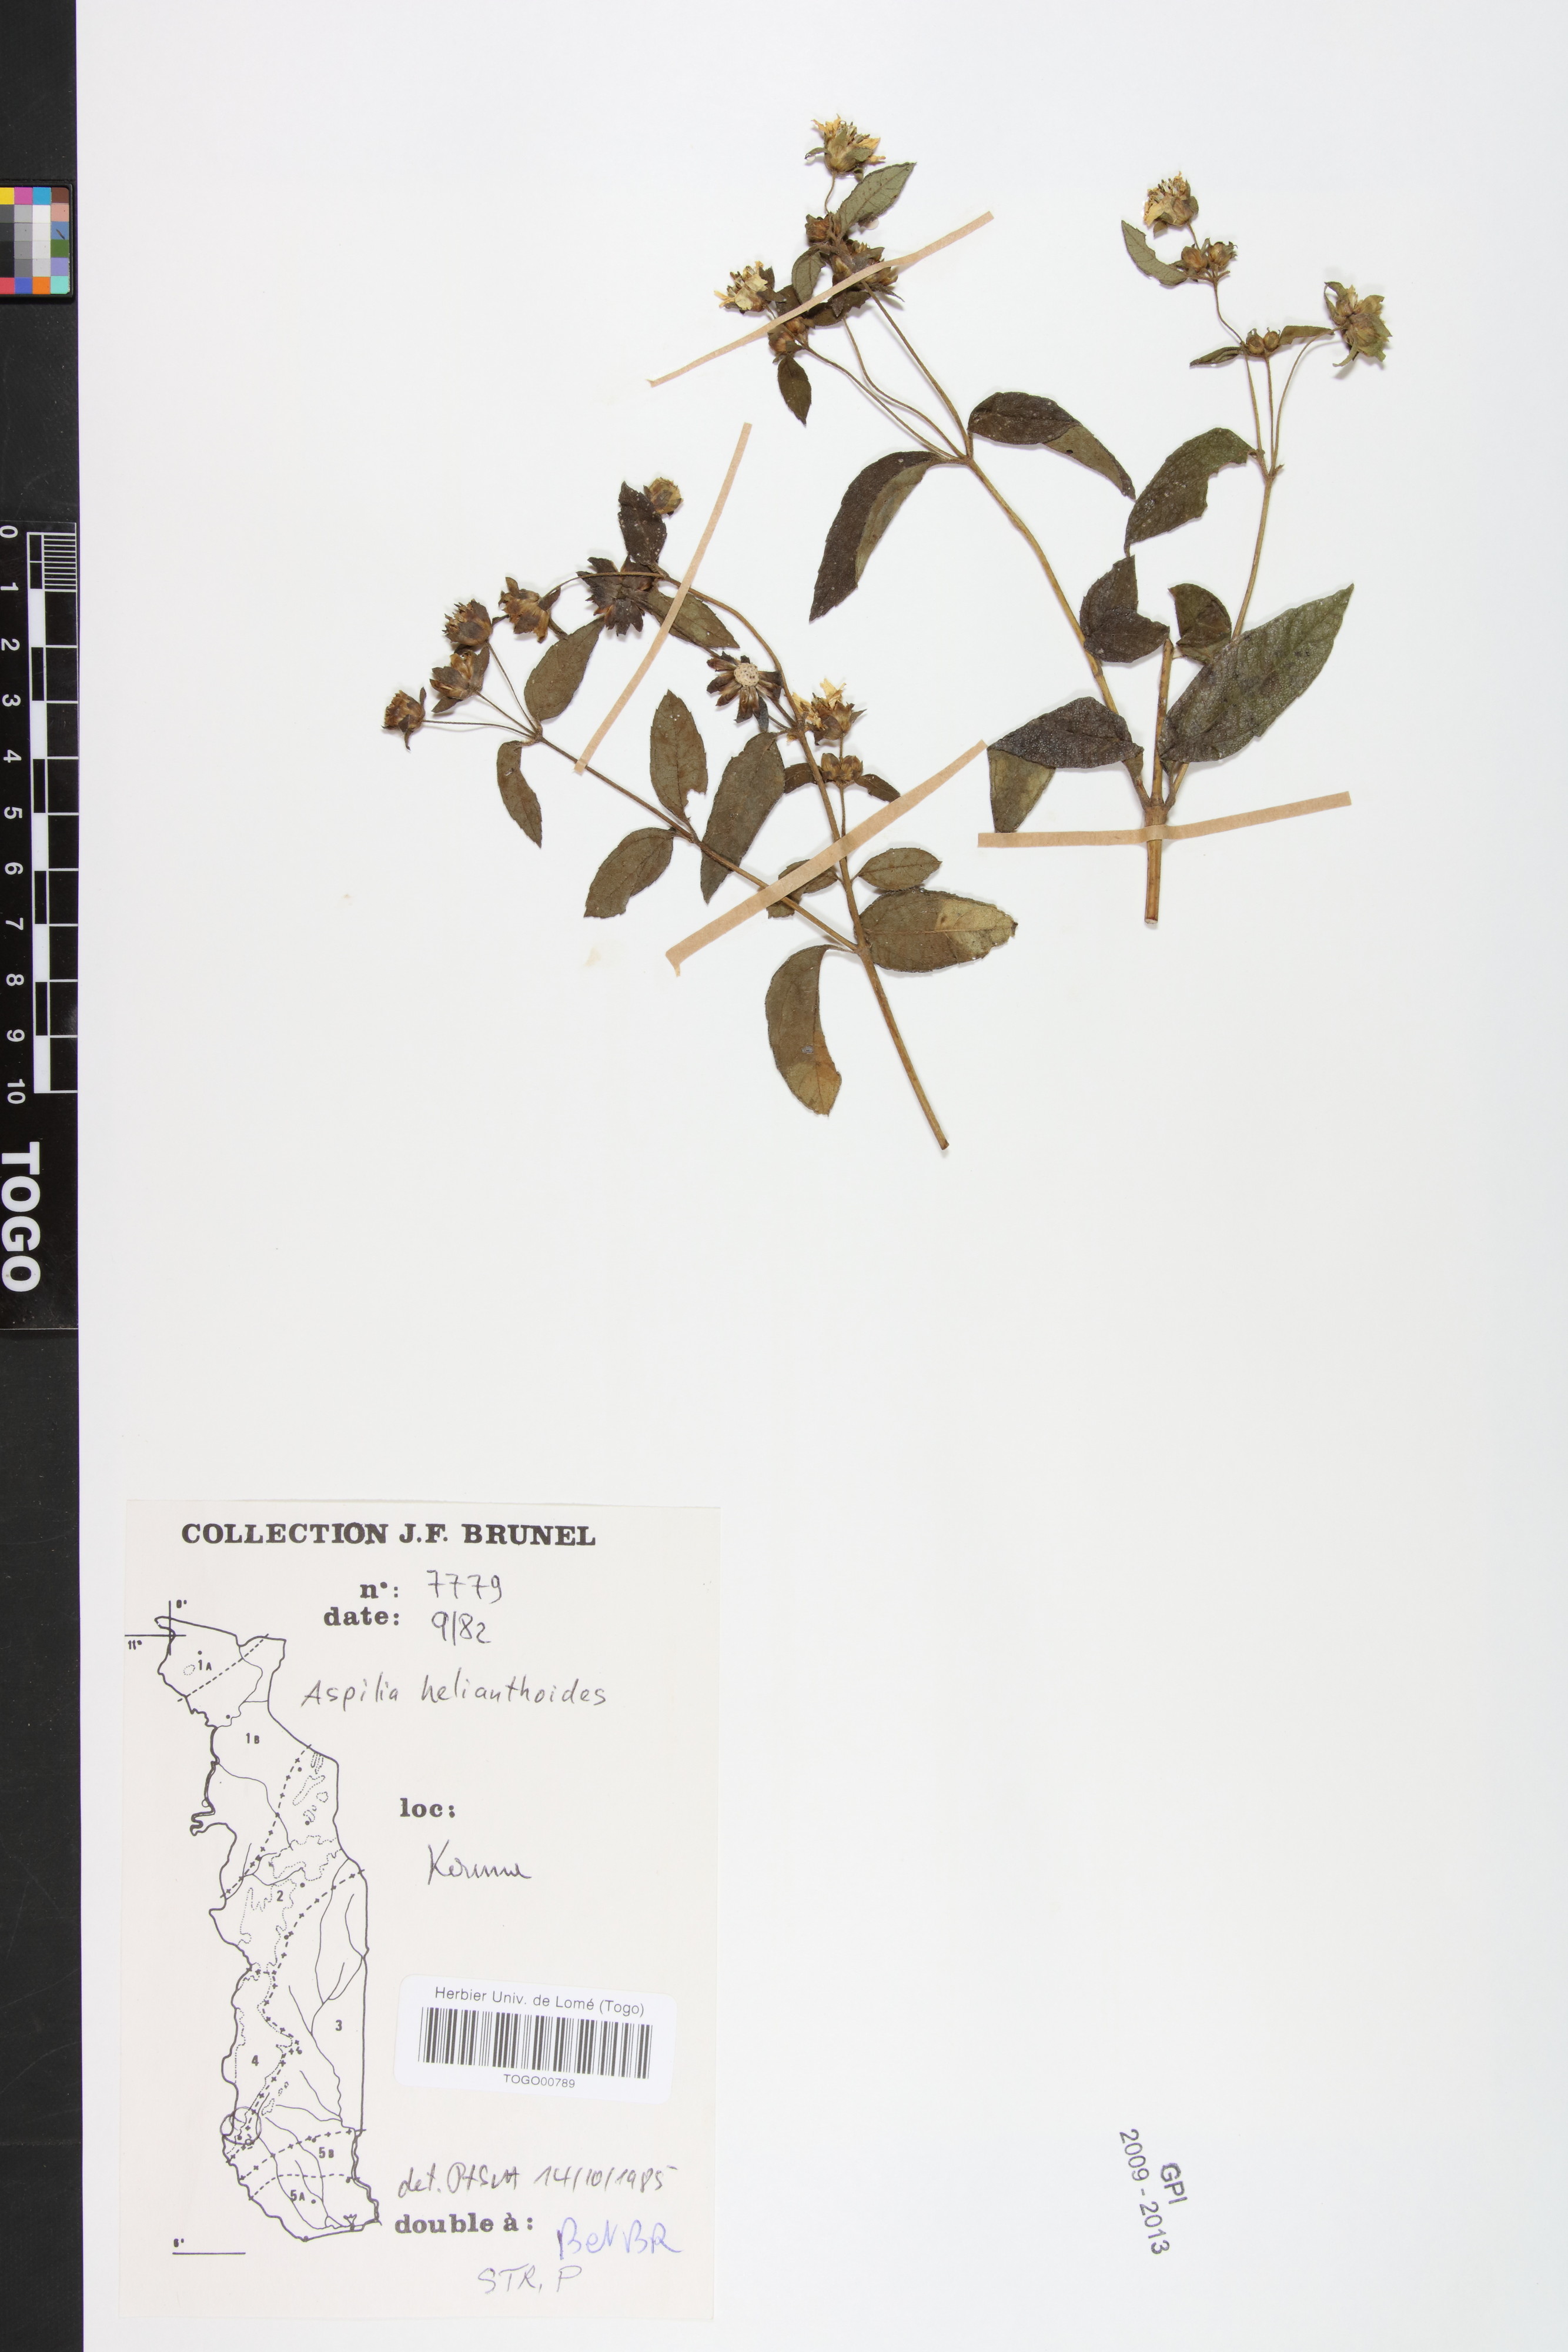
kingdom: Plantae
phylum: Tracheophyta
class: Magnoliopsida
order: Asterales
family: Asteraceae
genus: Aspilia
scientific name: Aspilia helianthoides
